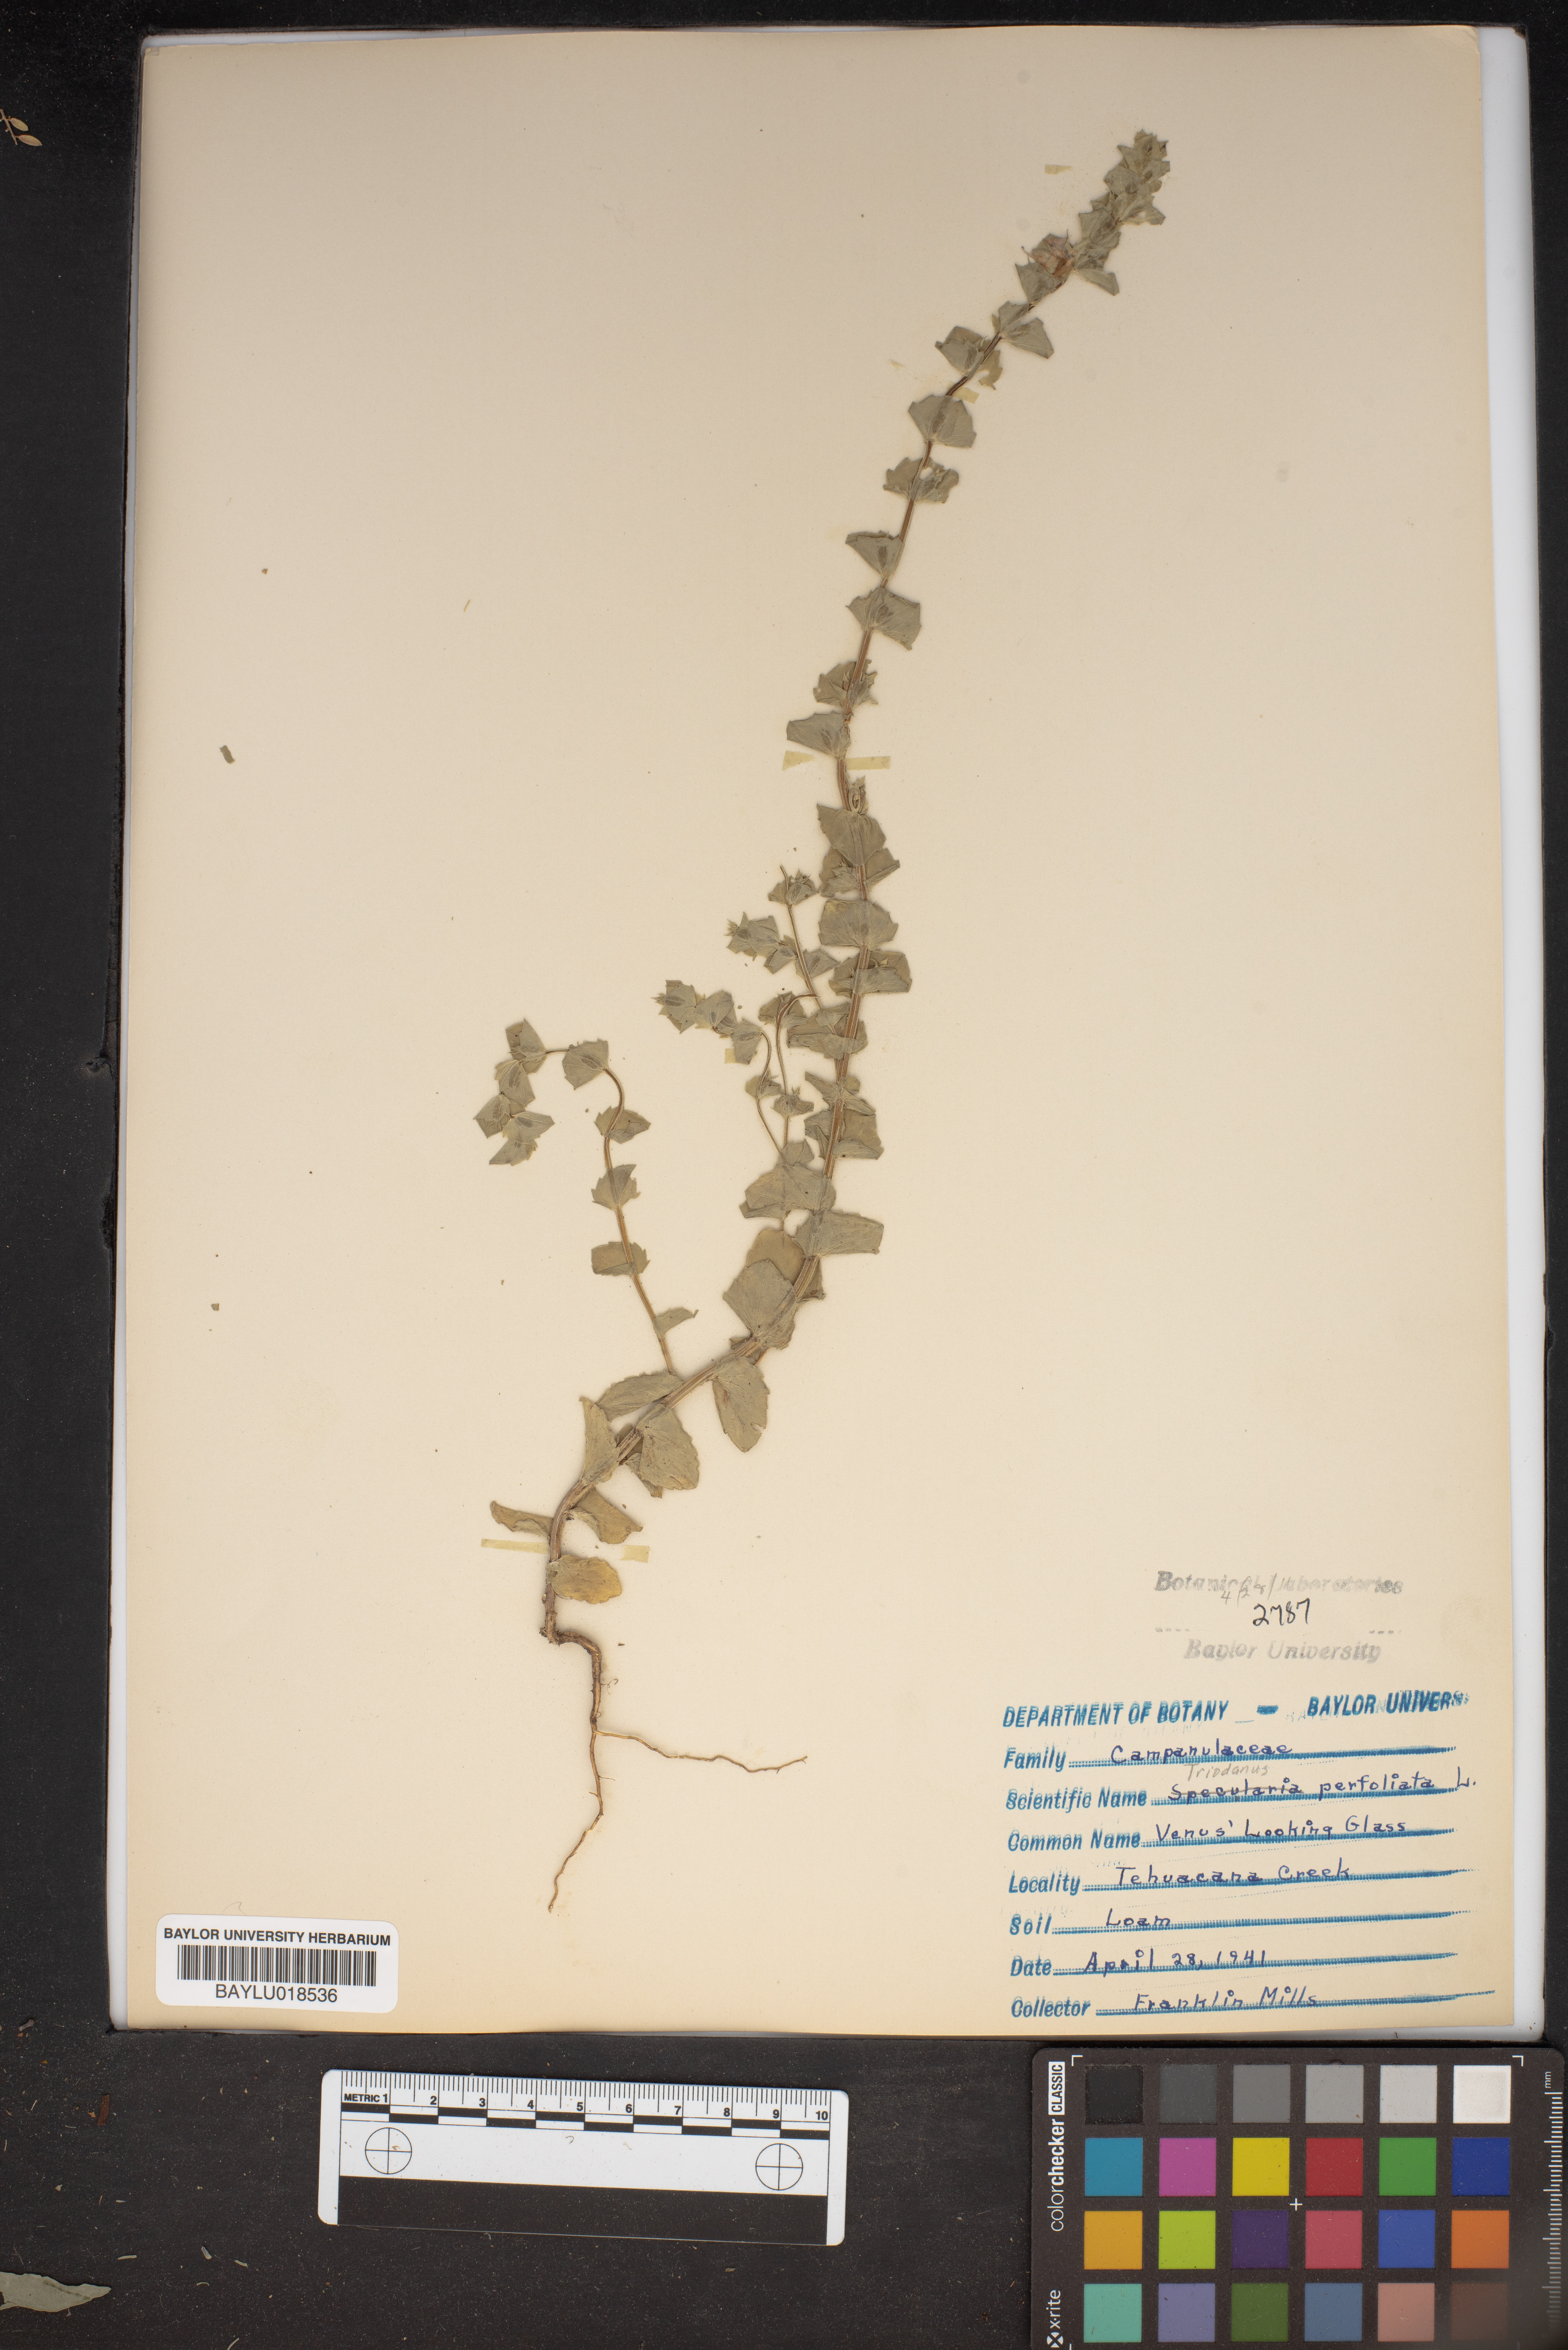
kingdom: Plantae
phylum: Tracheophyta
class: Magnoliopsida
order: Asterales
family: Campanulaceae
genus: Triodanis
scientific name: Triodanis perfoliata
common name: Clasping venus' looking-glass
